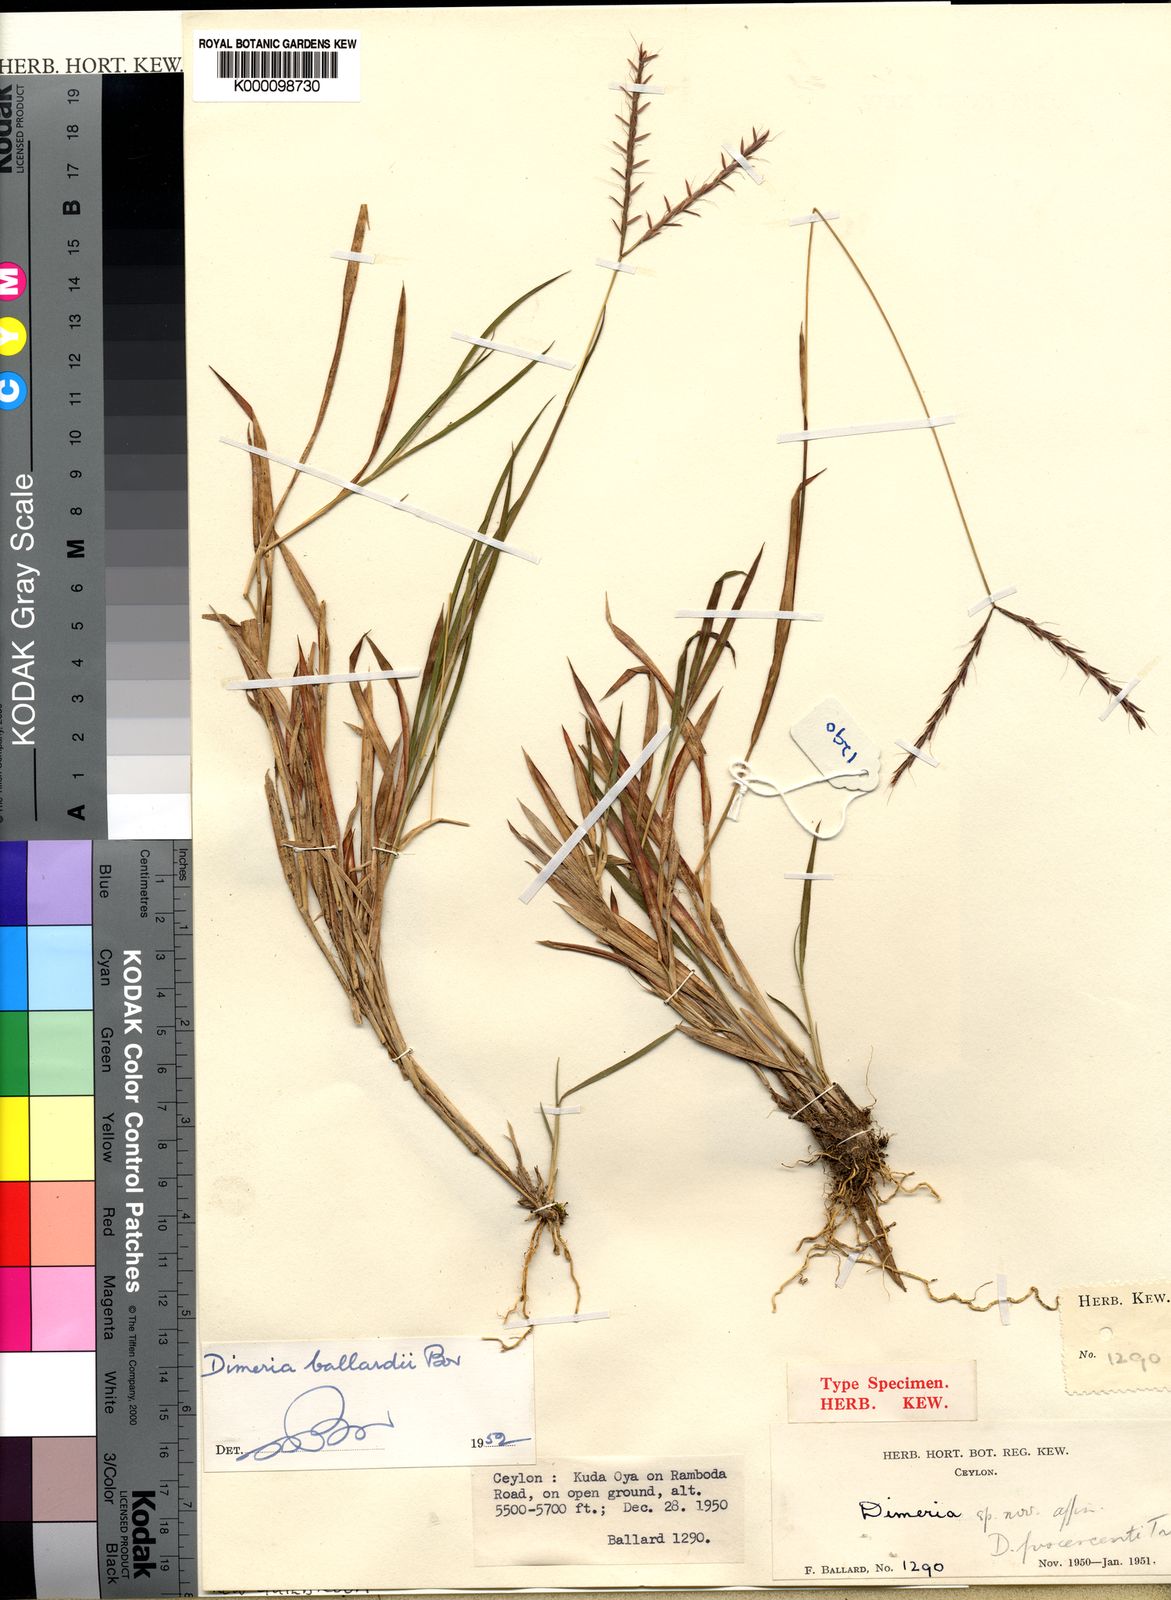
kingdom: Plantae
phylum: Tracheophyta
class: Liliopsida
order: Poales
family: Poaceae
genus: Dimeria
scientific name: Dimeria ballardii
